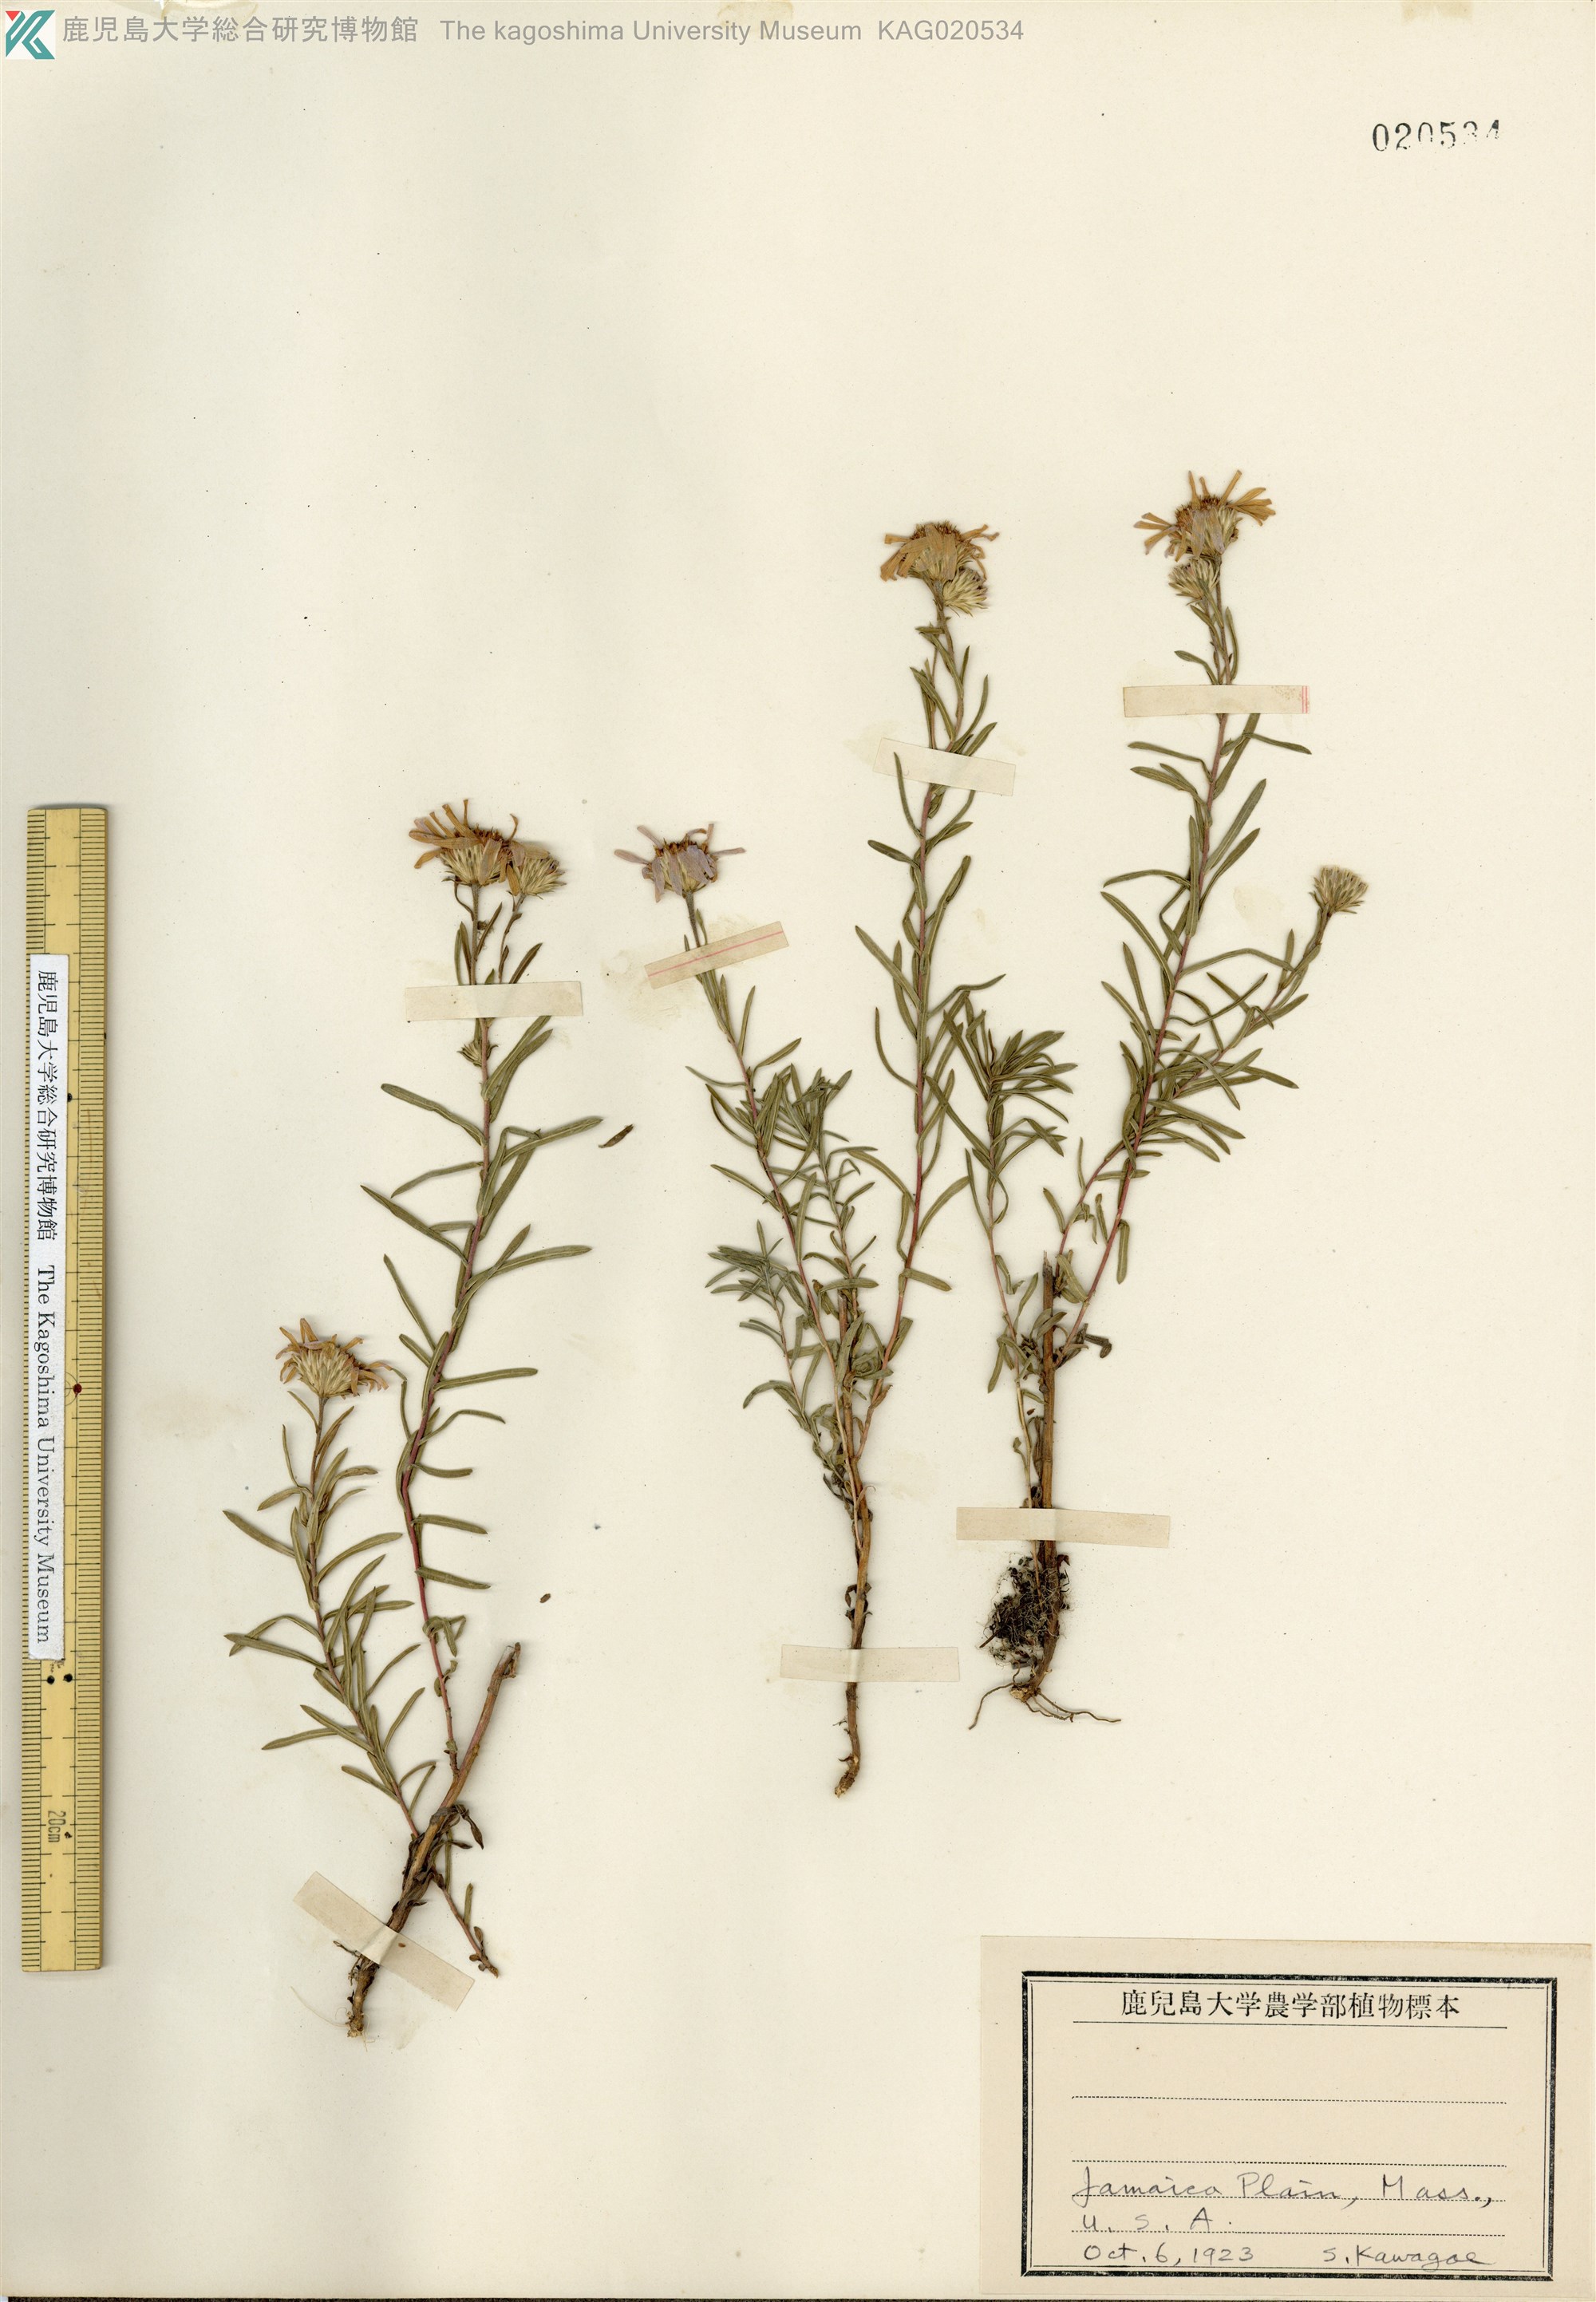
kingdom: Plantae
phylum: Tracheophyta
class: Magnoliopsida
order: Asterales
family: Asteraceae
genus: Aster
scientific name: Aster
